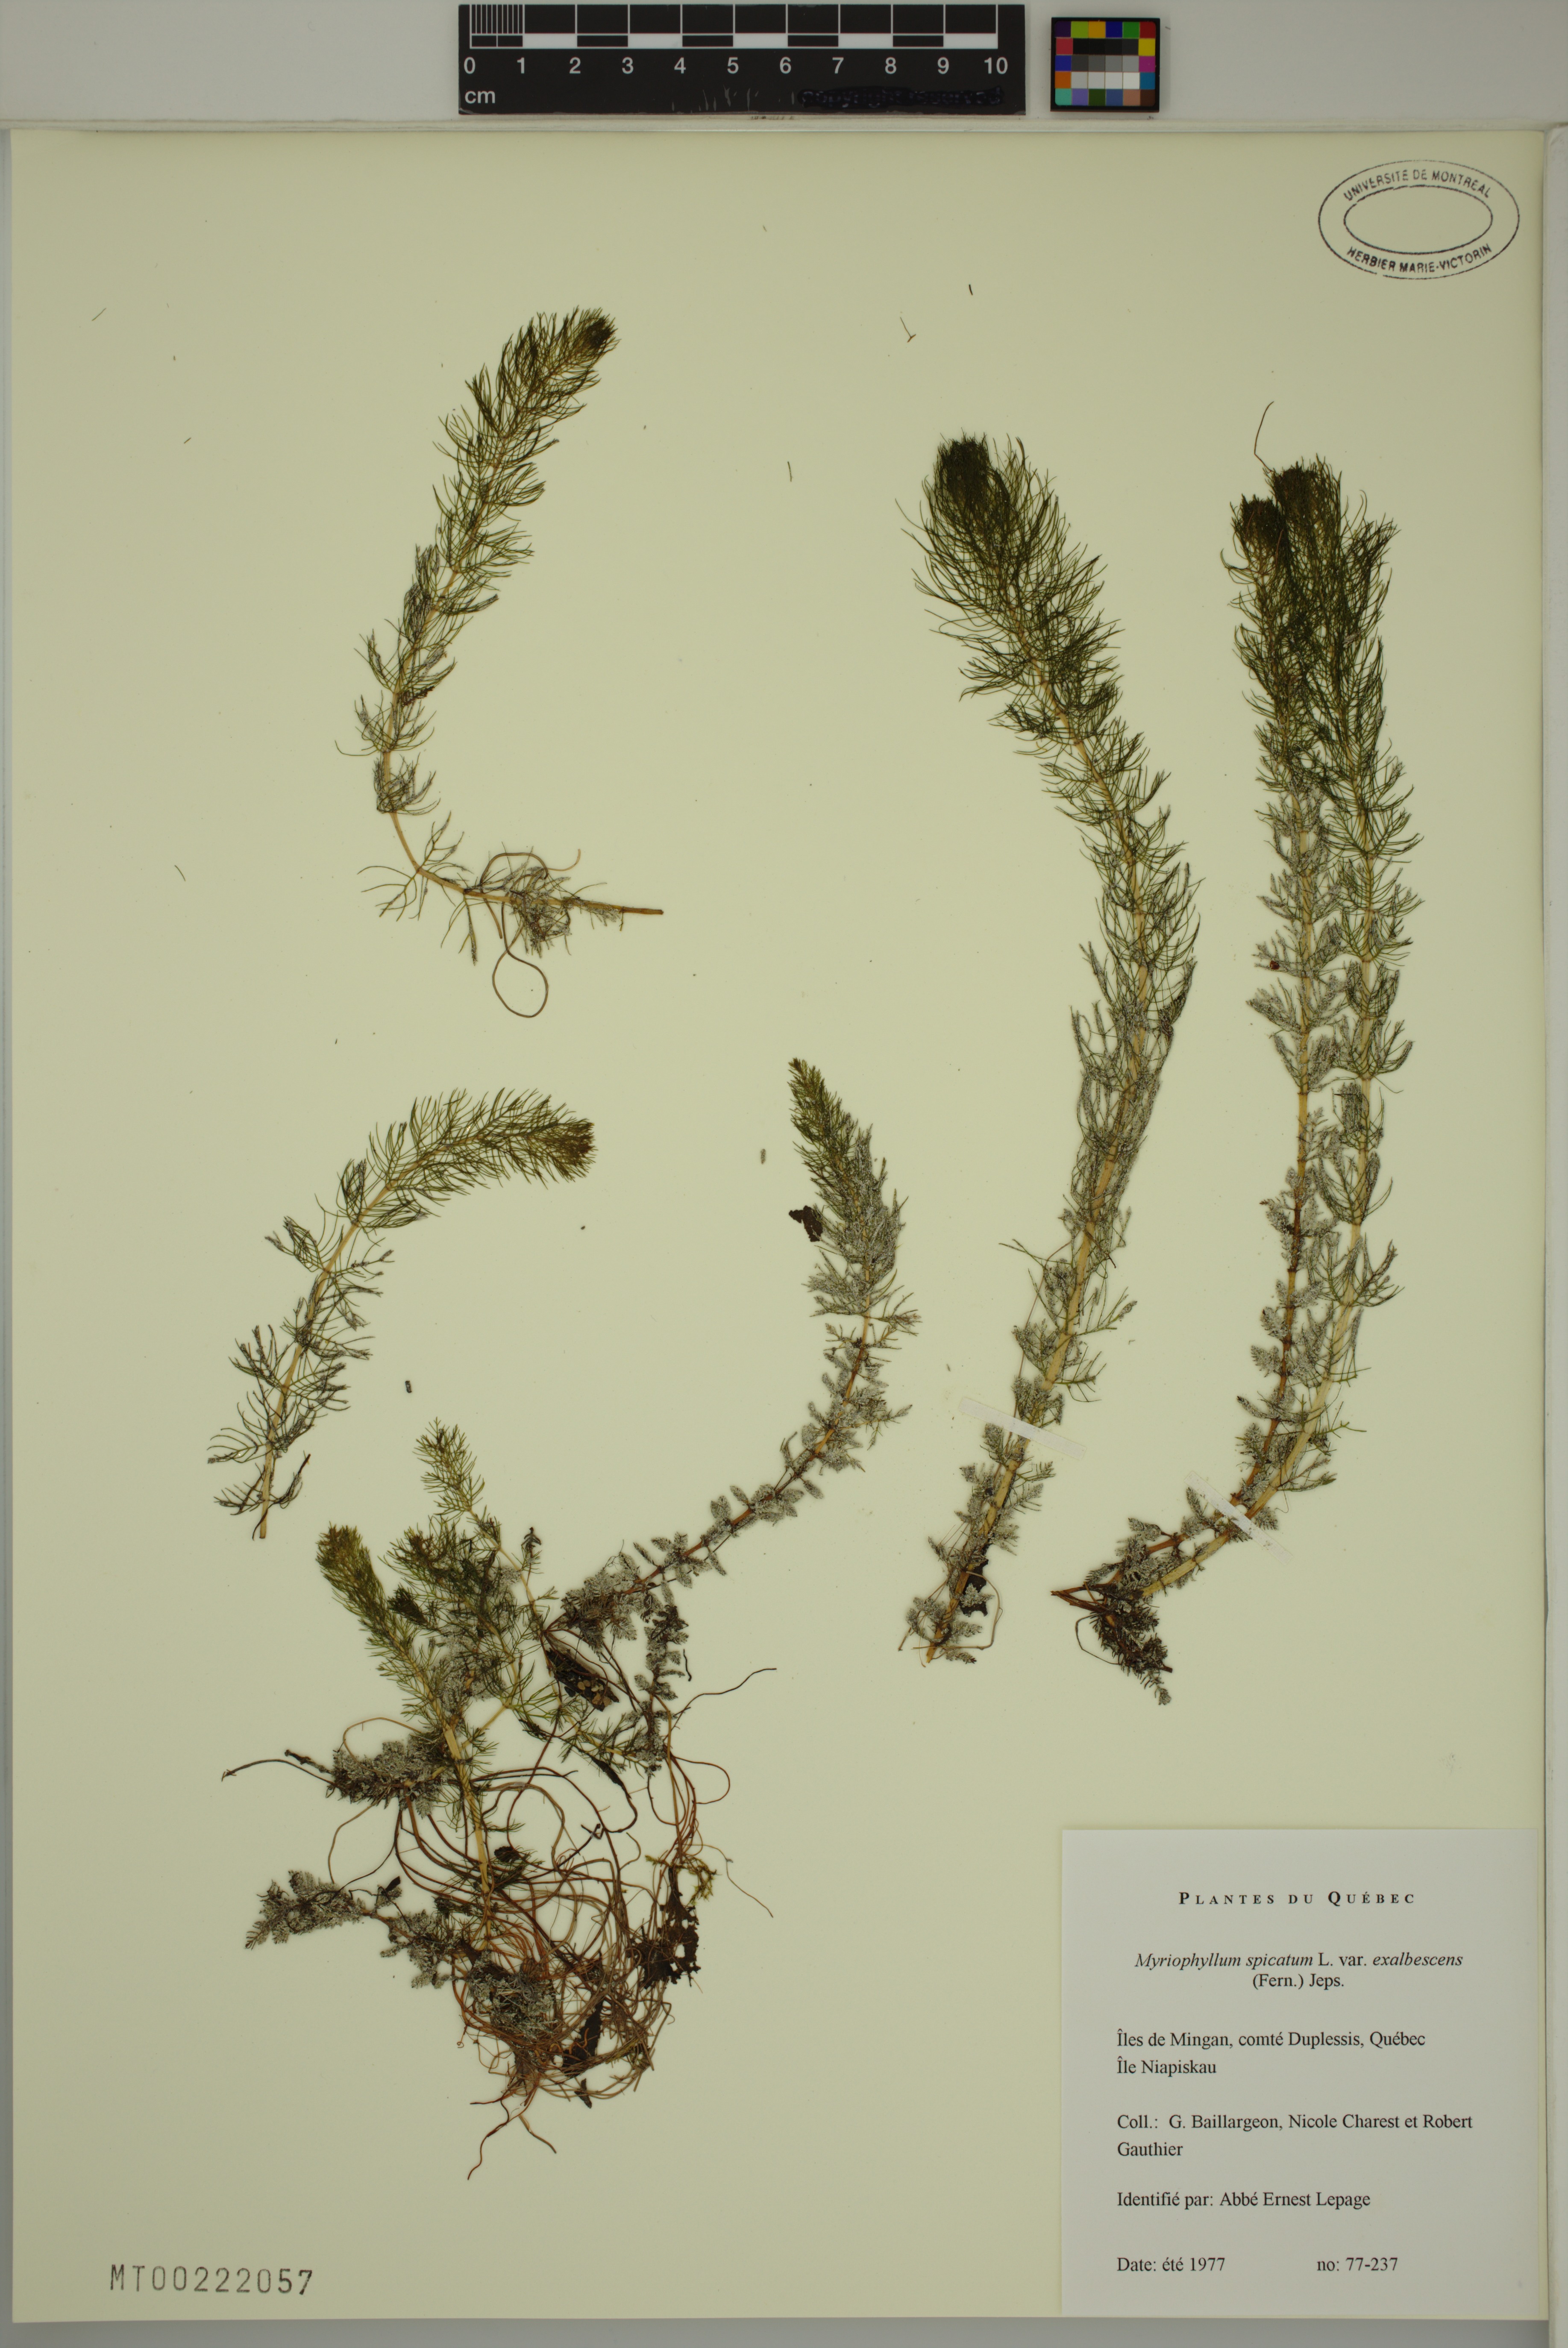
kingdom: Plantae
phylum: Tracheophyta
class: Magnoliopsida
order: Saxifragales
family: Haloragaceae
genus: Myriophyllum
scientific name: Myriophyllum sibiricum
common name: Siberian water-milfoil
